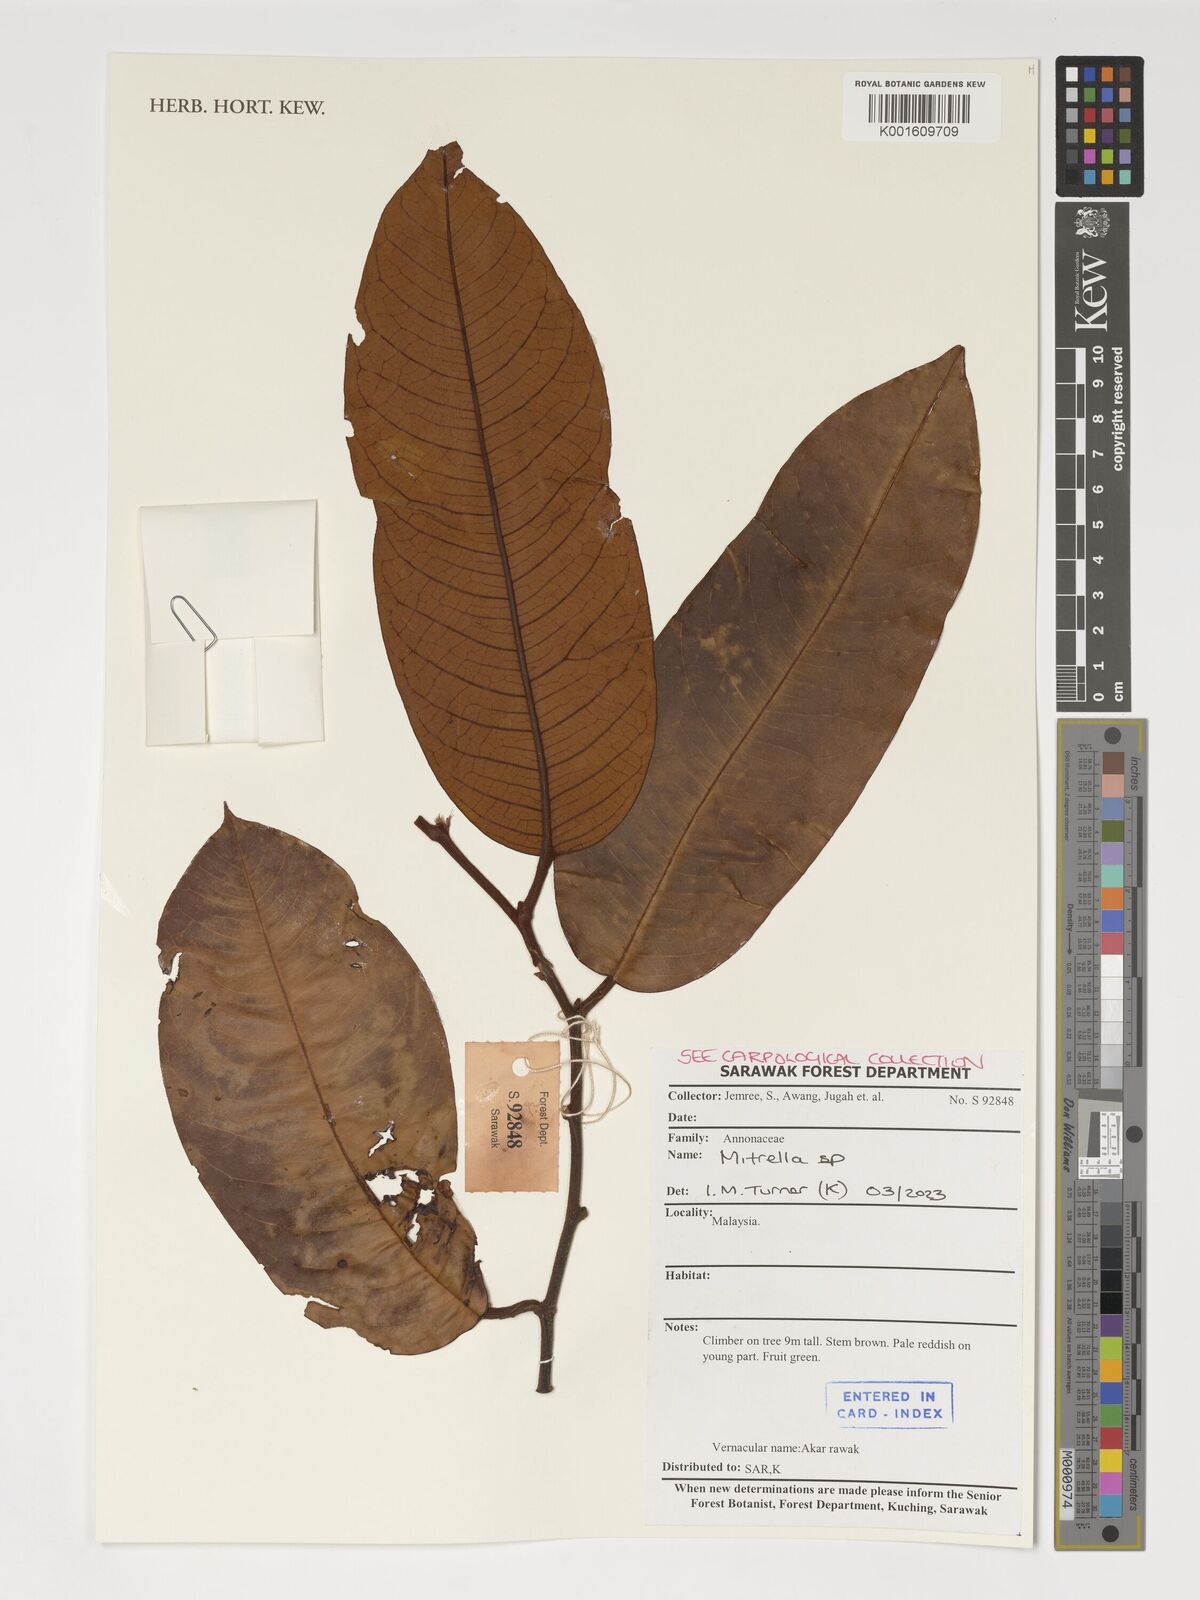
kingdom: Plantae
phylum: Tracheophyta
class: Magnoliopsida
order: Magnoliales
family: Annonaceae
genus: Mitrella
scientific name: Mitrella
